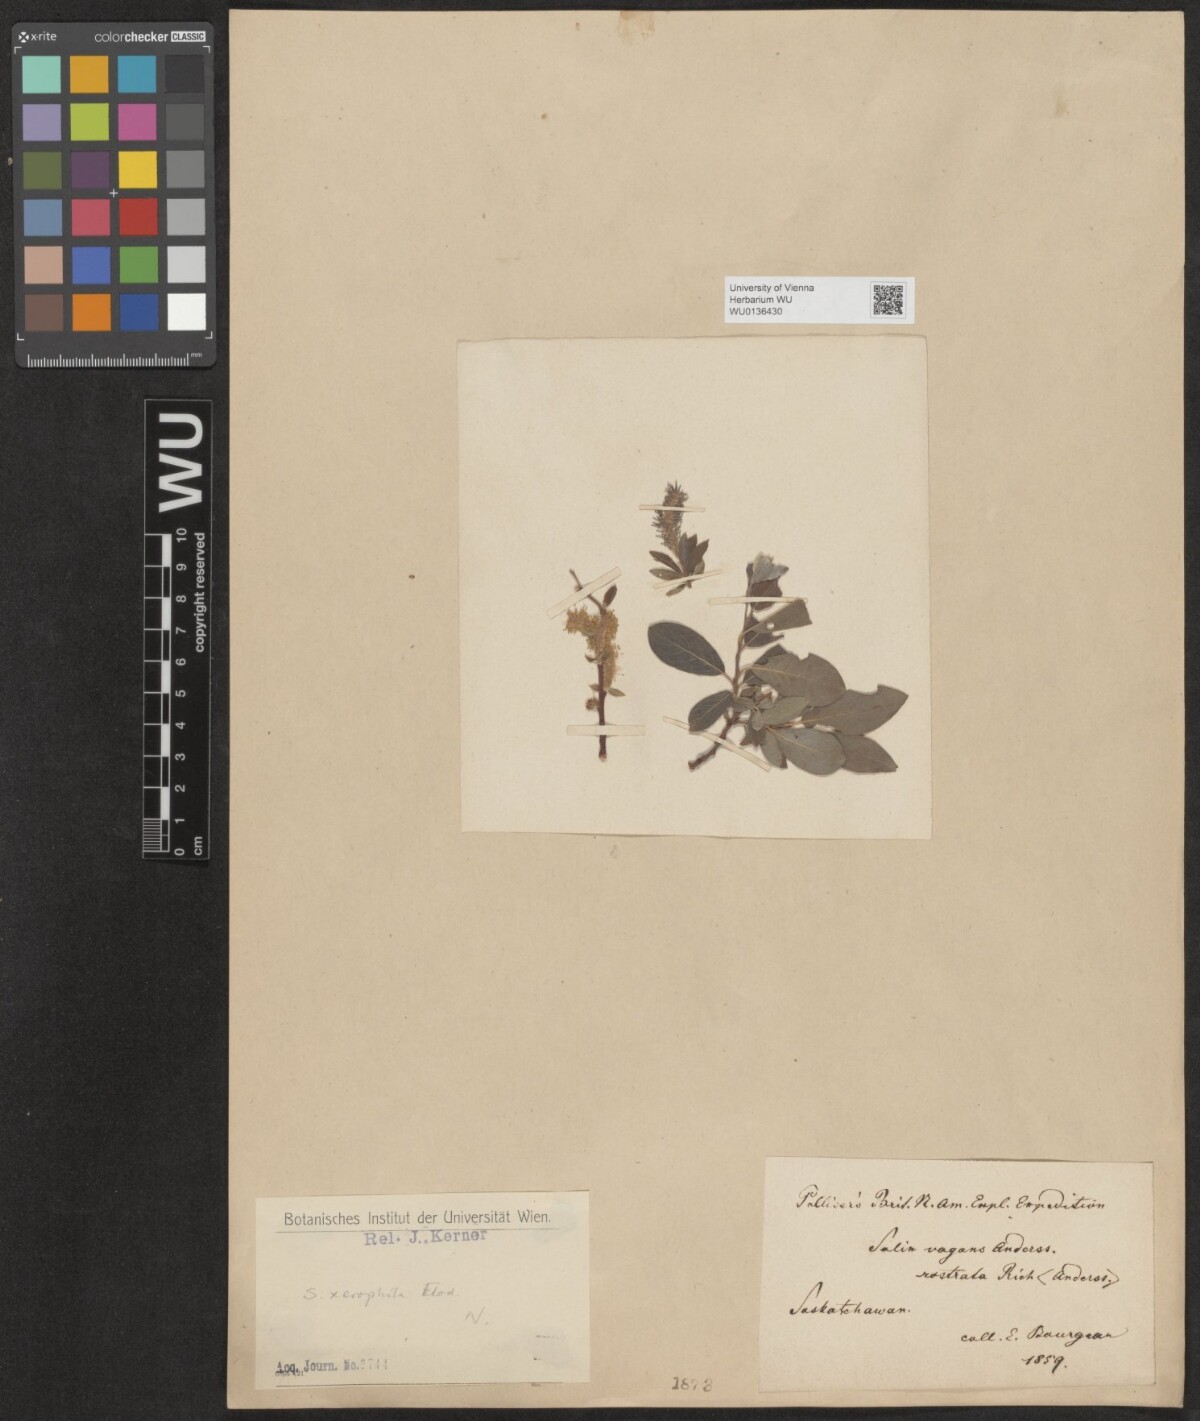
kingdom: Plantae
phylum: Tracheophyta
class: Magnoliopsida
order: Malpighiales
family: Salicaceae
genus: Salix
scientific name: Salix lanata
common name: Woolly willow
